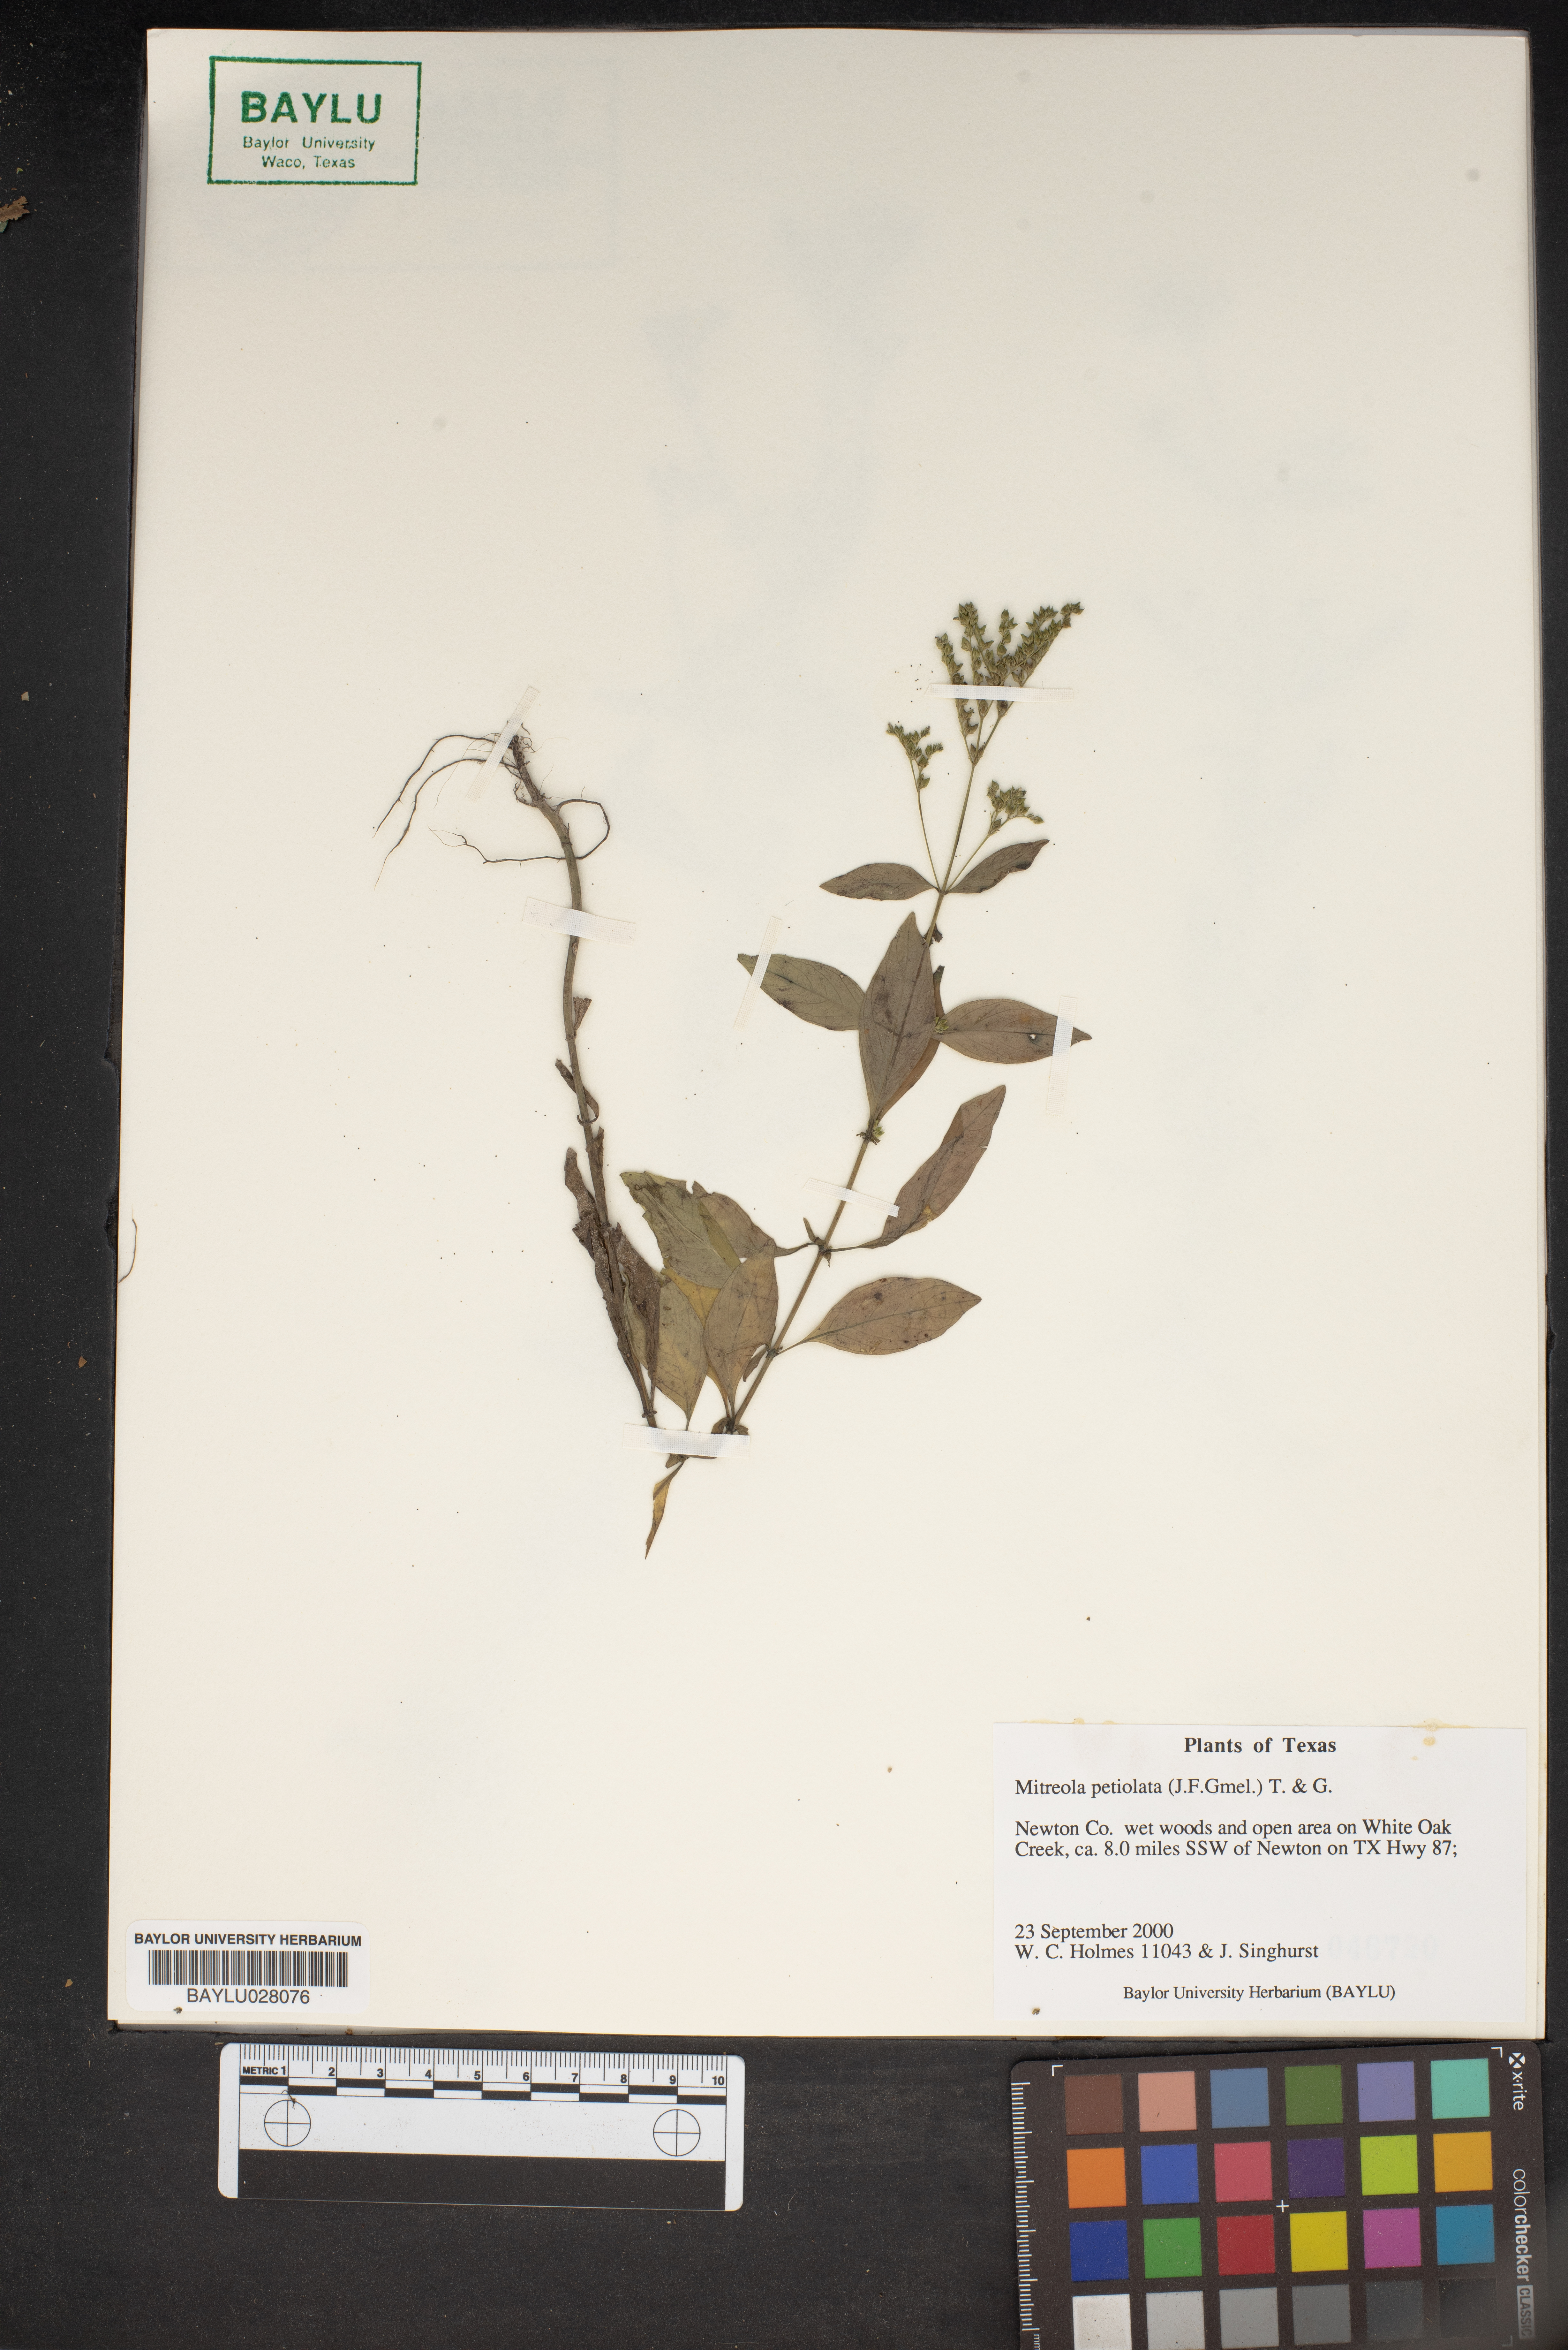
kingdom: Plantae
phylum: Tracheophyta
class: Magnoliopsida
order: Gentianales
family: Loganiaceae
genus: Mitreola
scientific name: Mitreola petiolata
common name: Lax hornpod
